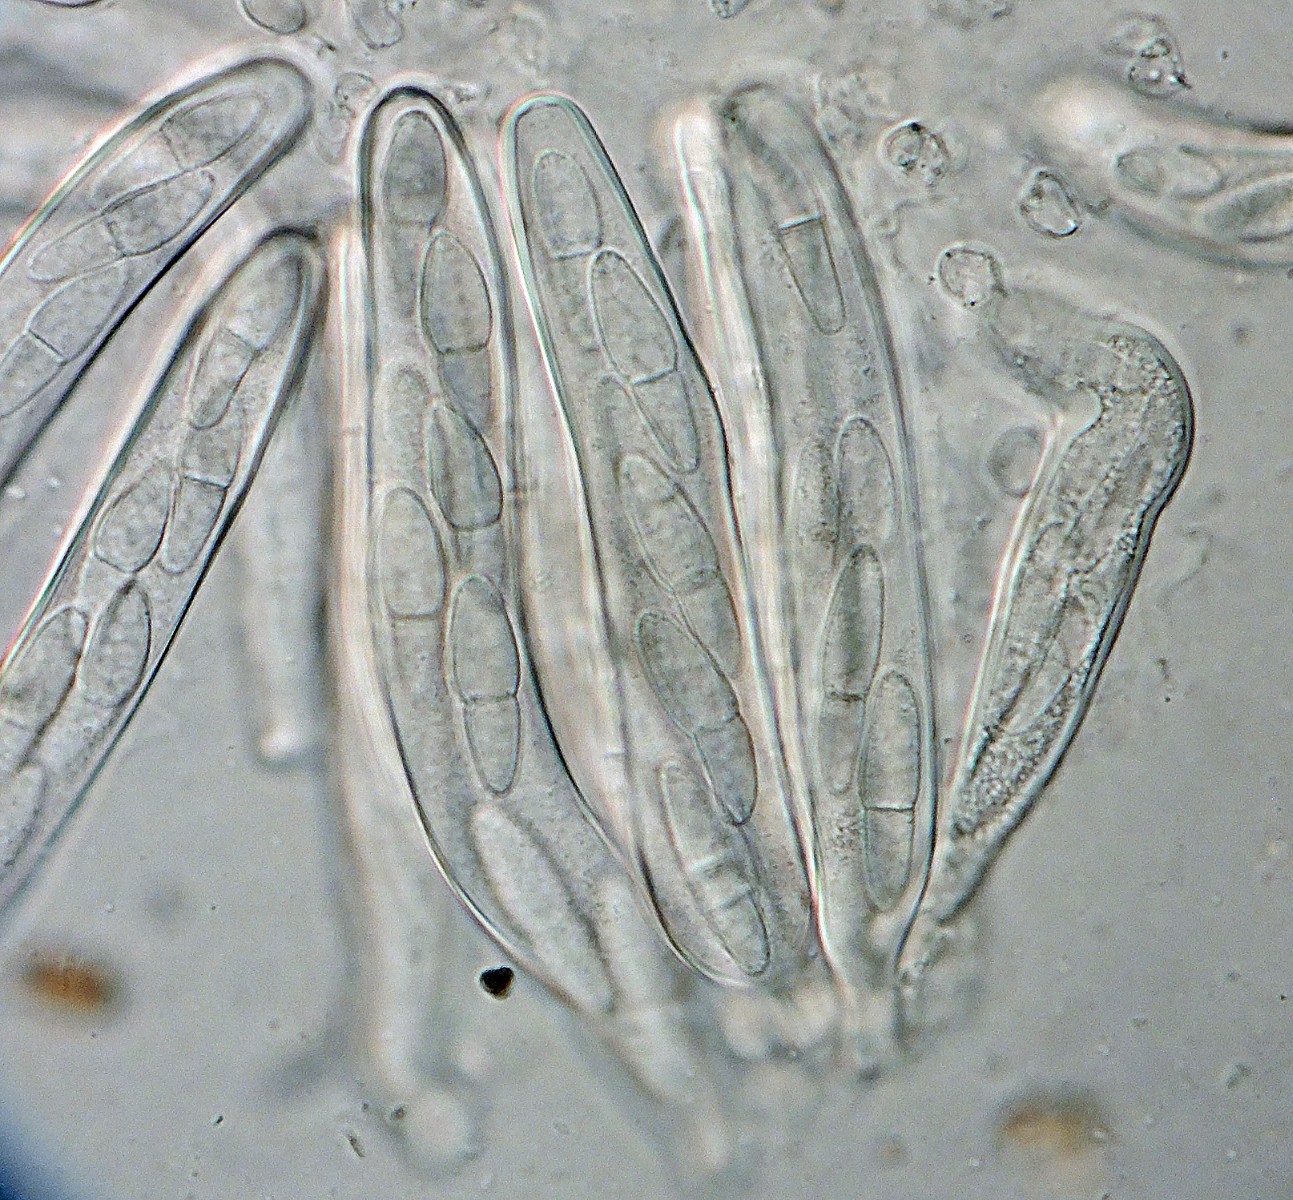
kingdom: Fungi
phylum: Ascomycota
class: Dothideomycetes
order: Botryosphaeriales
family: Botryosphaeriaceae
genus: Dothiora
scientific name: Dothiora ribesia
